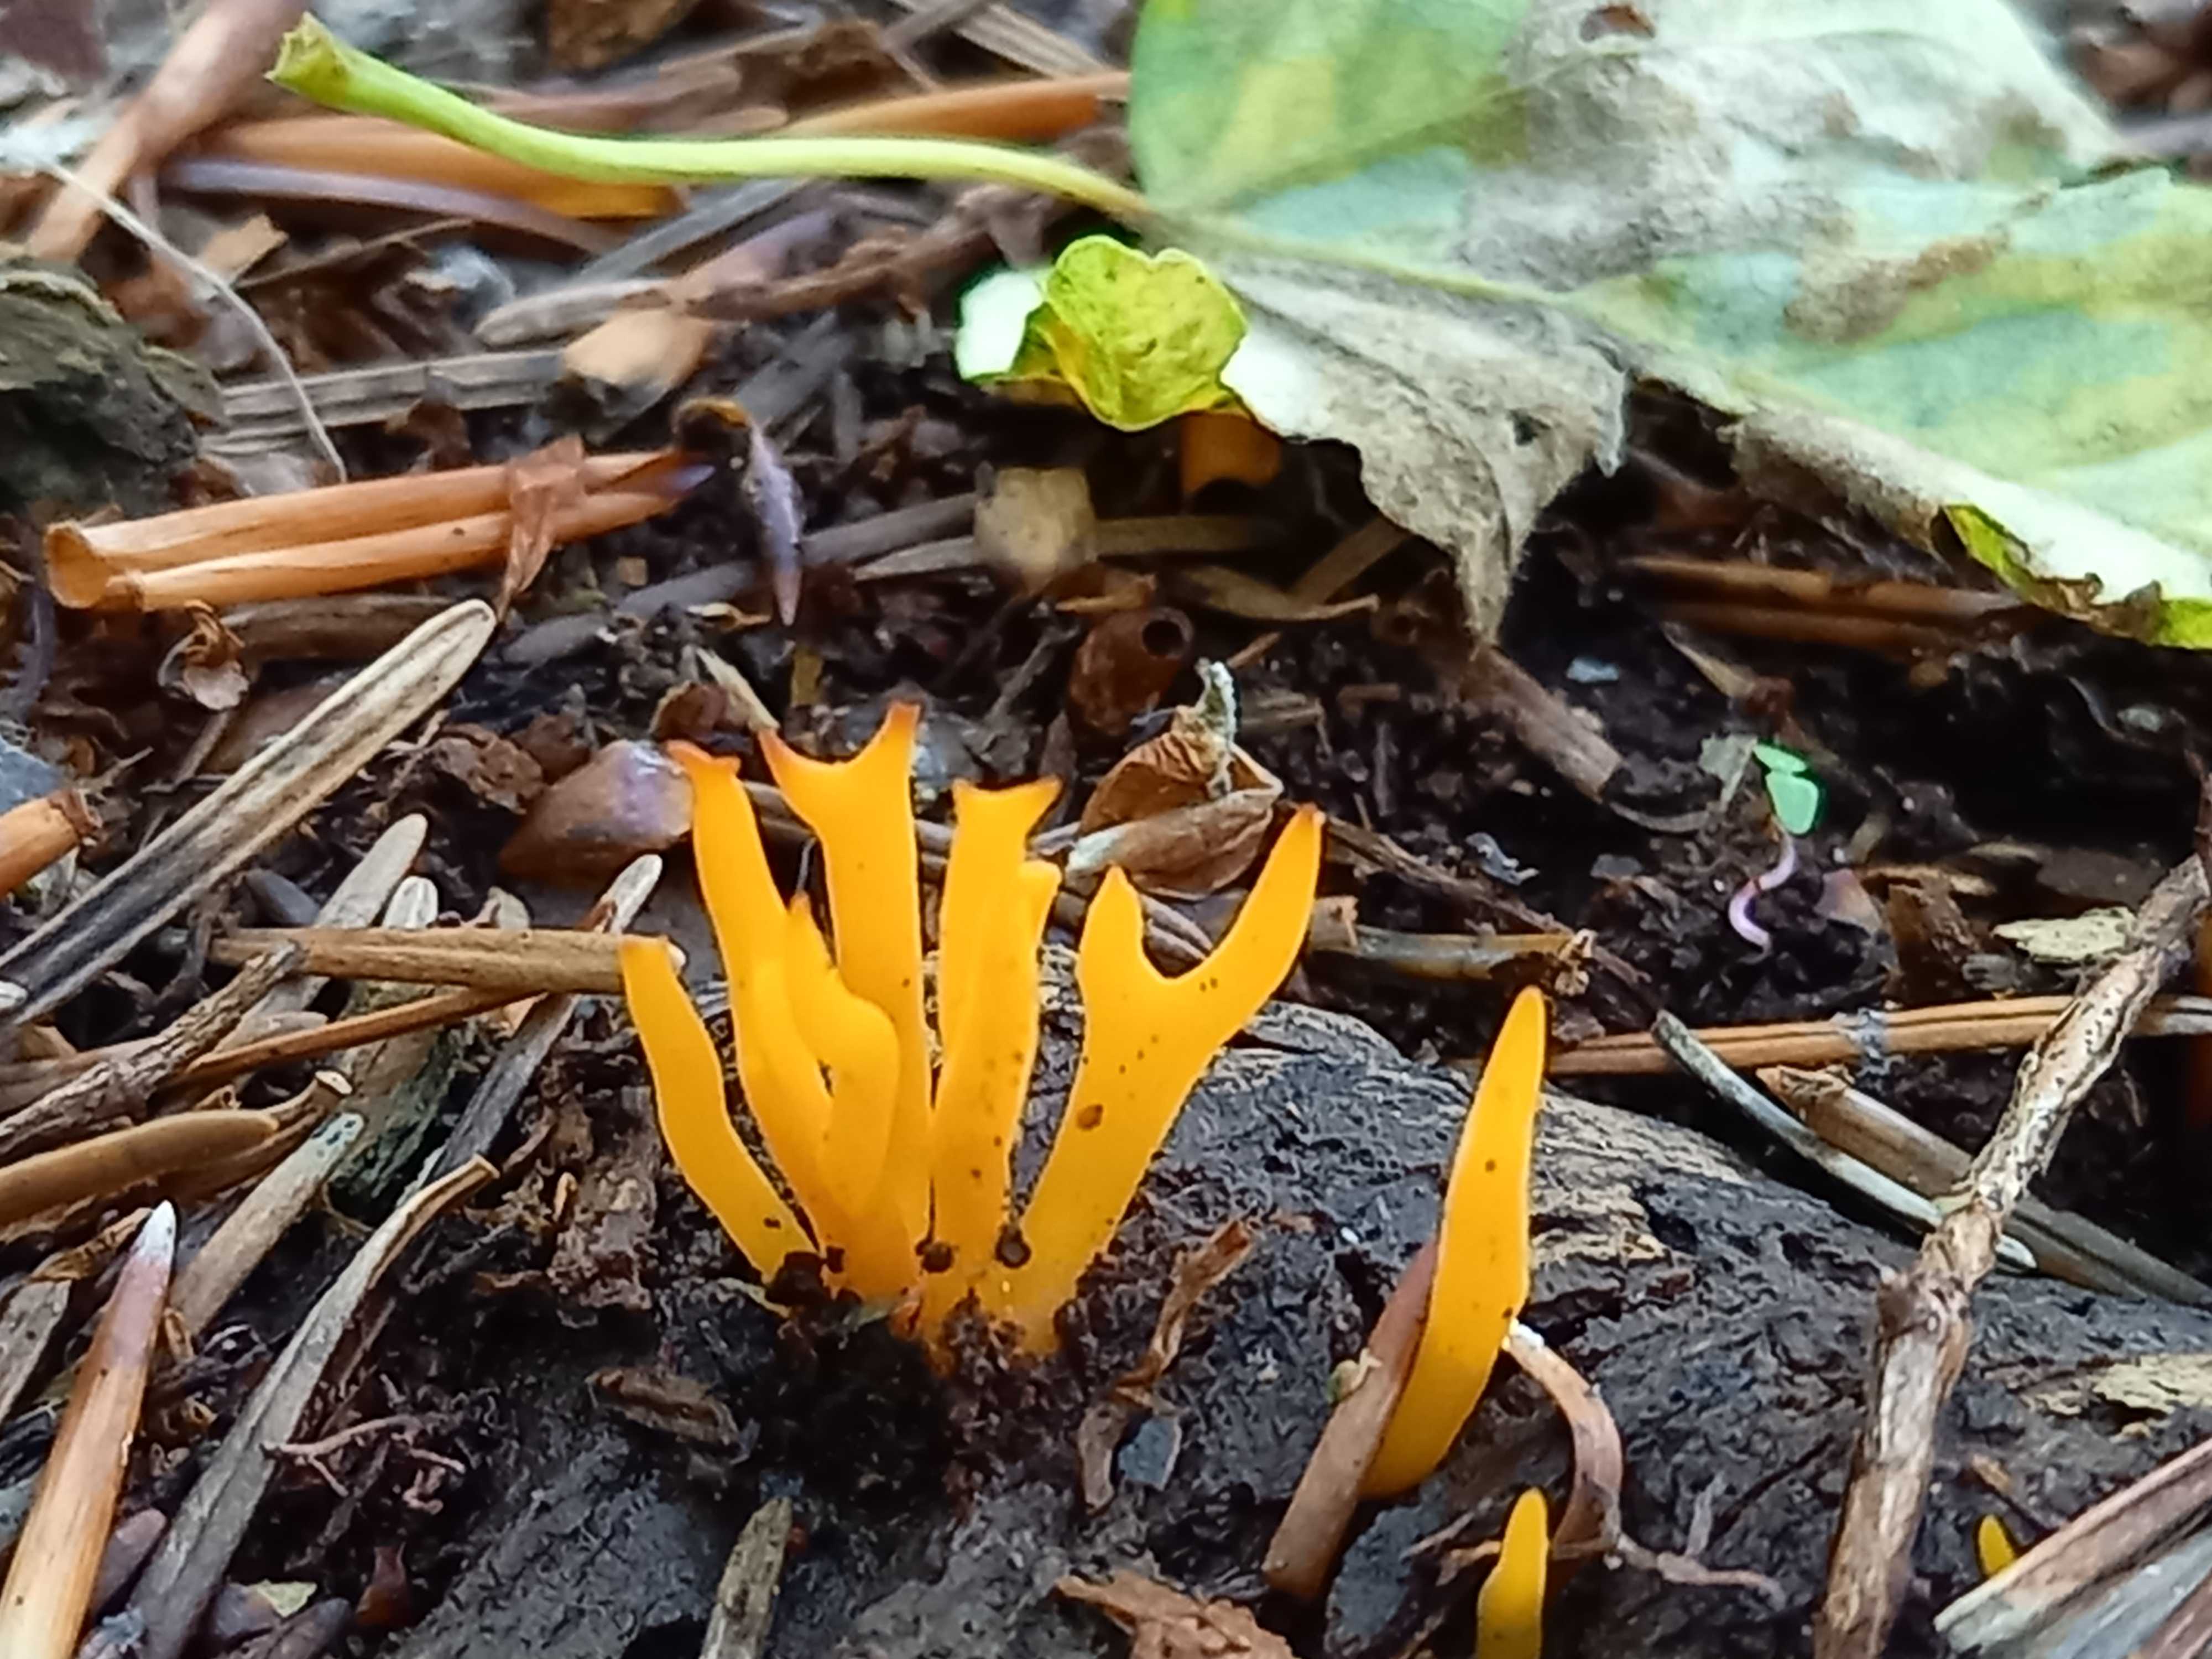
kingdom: Fungi
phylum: Basidiomycota
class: Dacrymycetes
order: Dacrymycetales
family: Dacrymycetaceae
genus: Calocera
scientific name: Calocera viscosa
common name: almindelig guldgaffel
